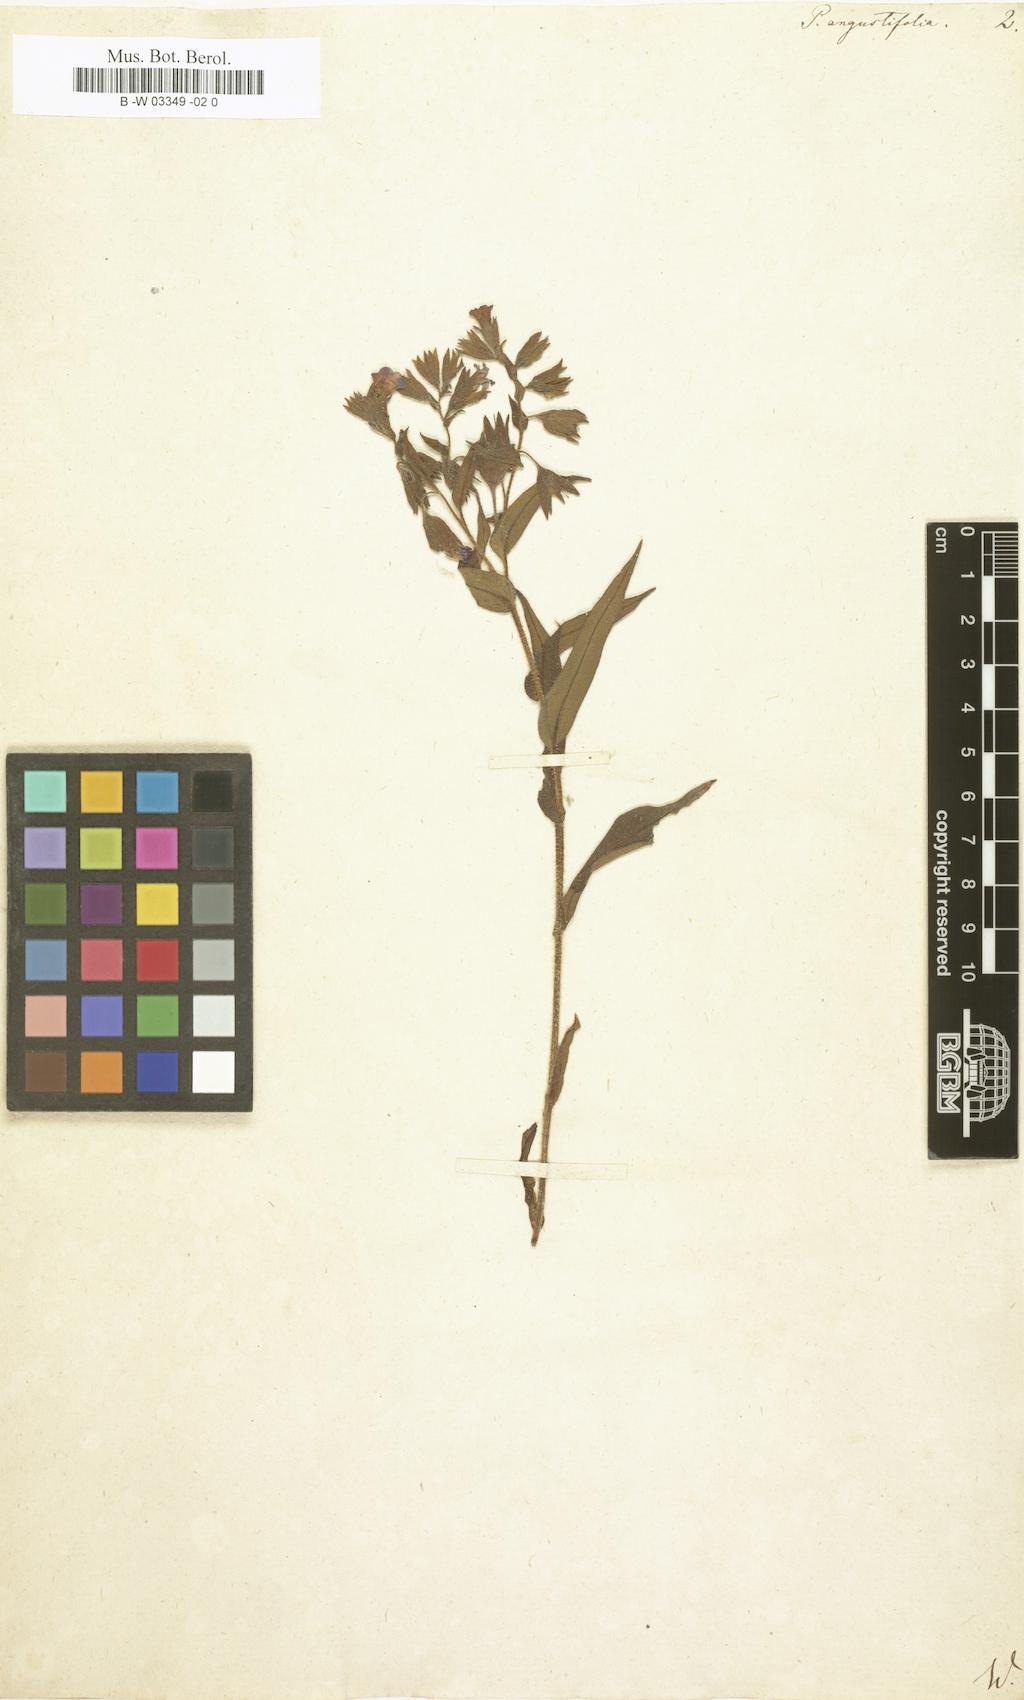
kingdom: Plantae
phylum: Tracheophyta
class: Magnoliopsida
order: Boraginales
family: Boraginaceae
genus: Pulmonaria
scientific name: Pulmonaria angustifolia
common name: Blue cowslip
